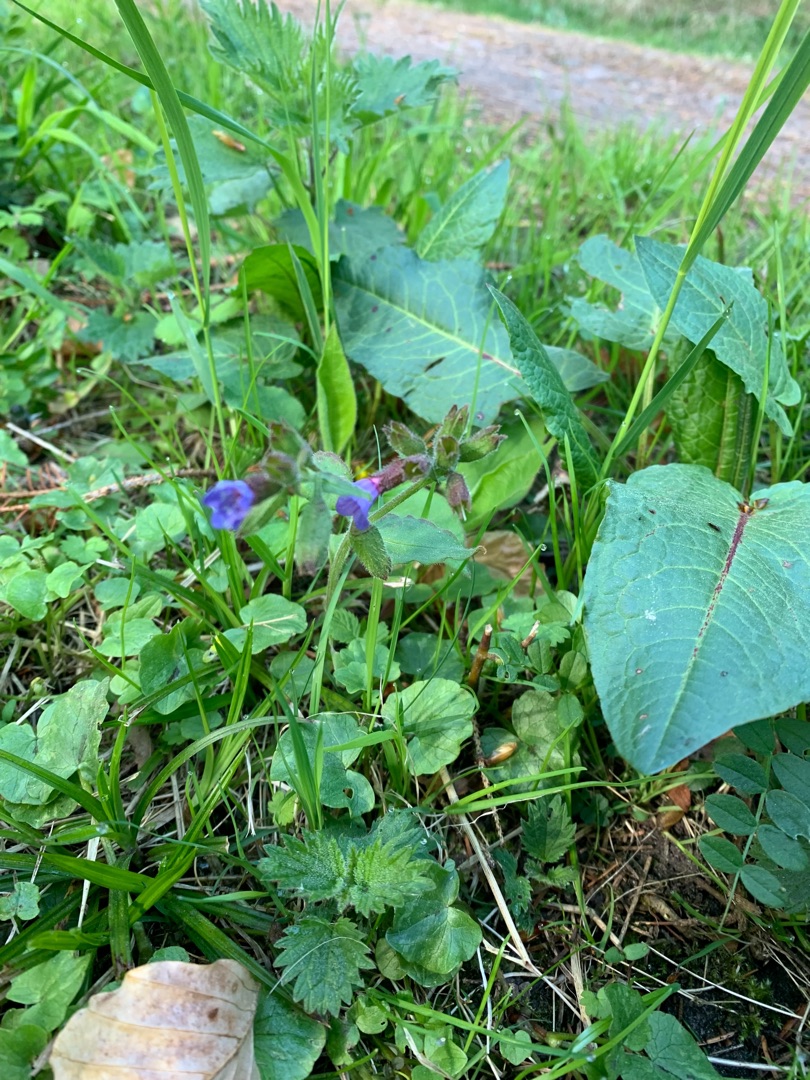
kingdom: Plantae
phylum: Tracheophyta
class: Magnoliopsida
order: Boraginales
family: Boraginaceae
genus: Pulmonaria
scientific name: Pulmonaria obscura
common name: Almindelig lungeurt
